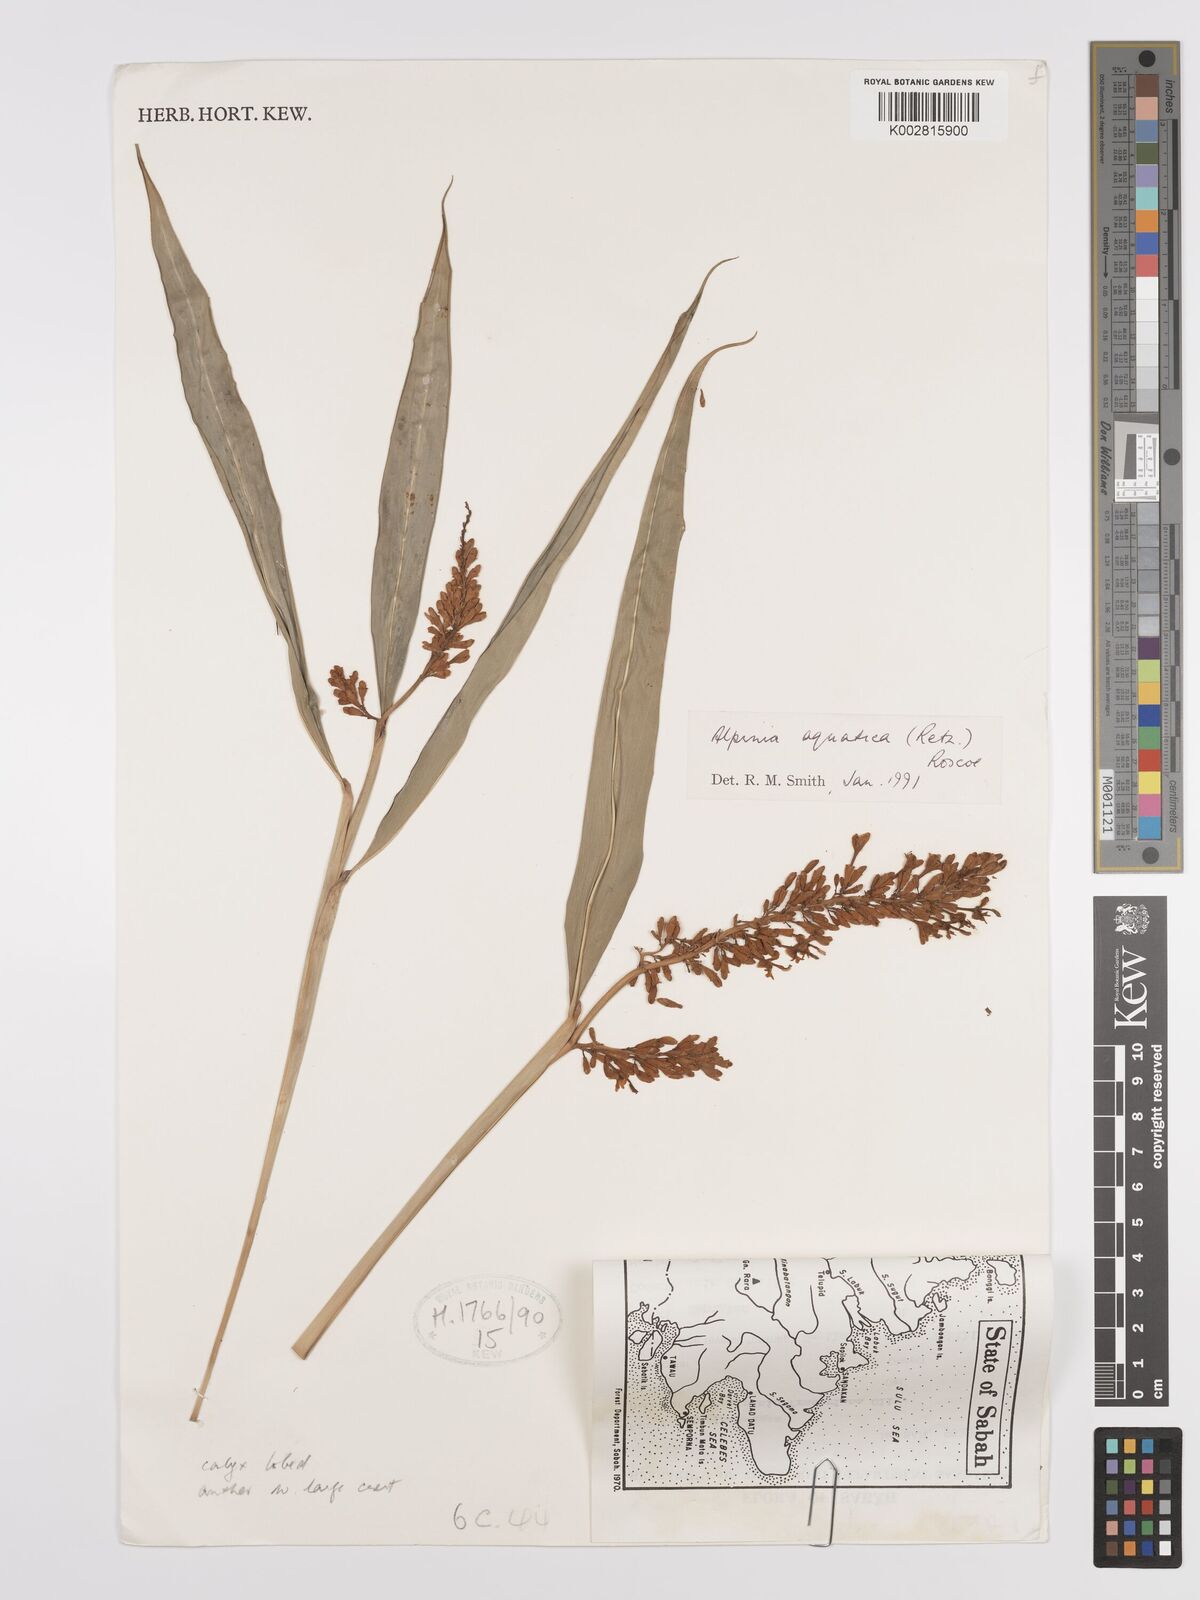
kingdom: Plantae
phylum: Tracheophyta
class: Liliopsida
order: Zingiberales
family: Zingiberaceae
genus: Alpinia
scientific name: Alpinia aquatica
